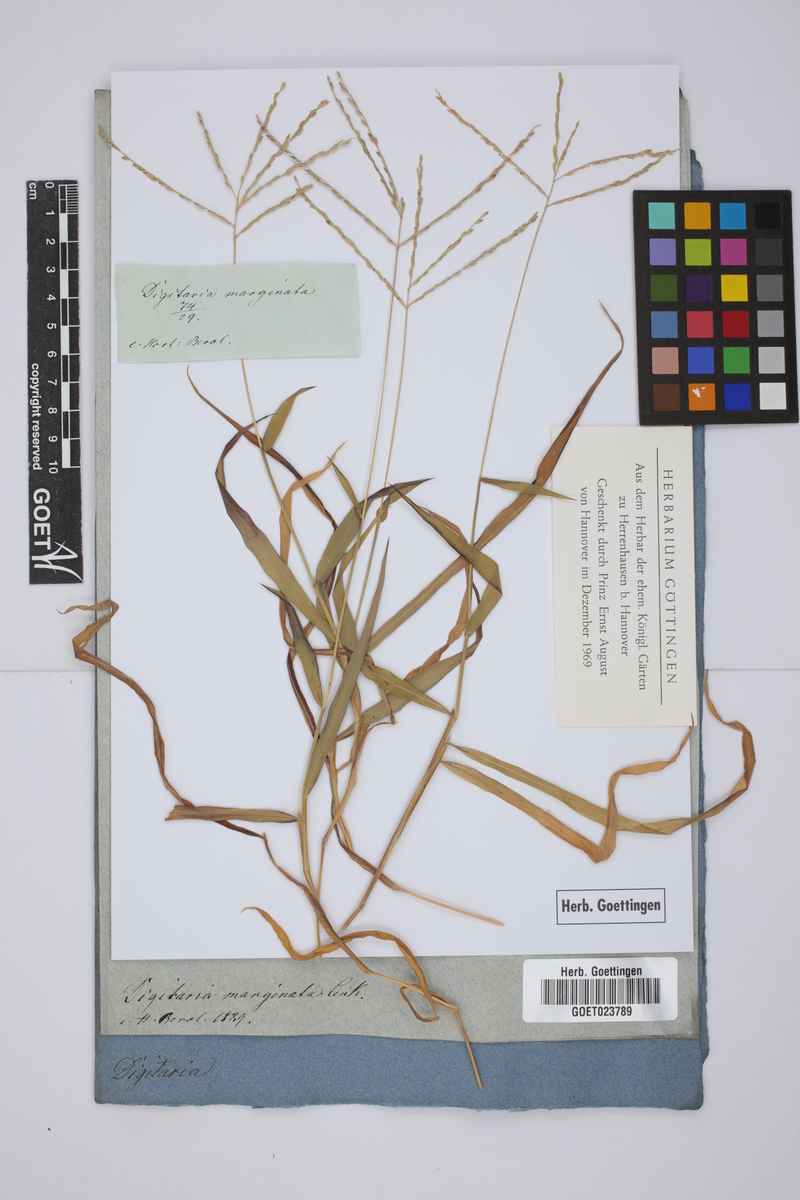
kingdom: Plantae
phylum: Tracheophyta
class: Liliopsida
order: Poales
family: Poaceae
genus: Digitaria
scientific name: Digitaria ciliaris
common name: Tropical finger-grass
